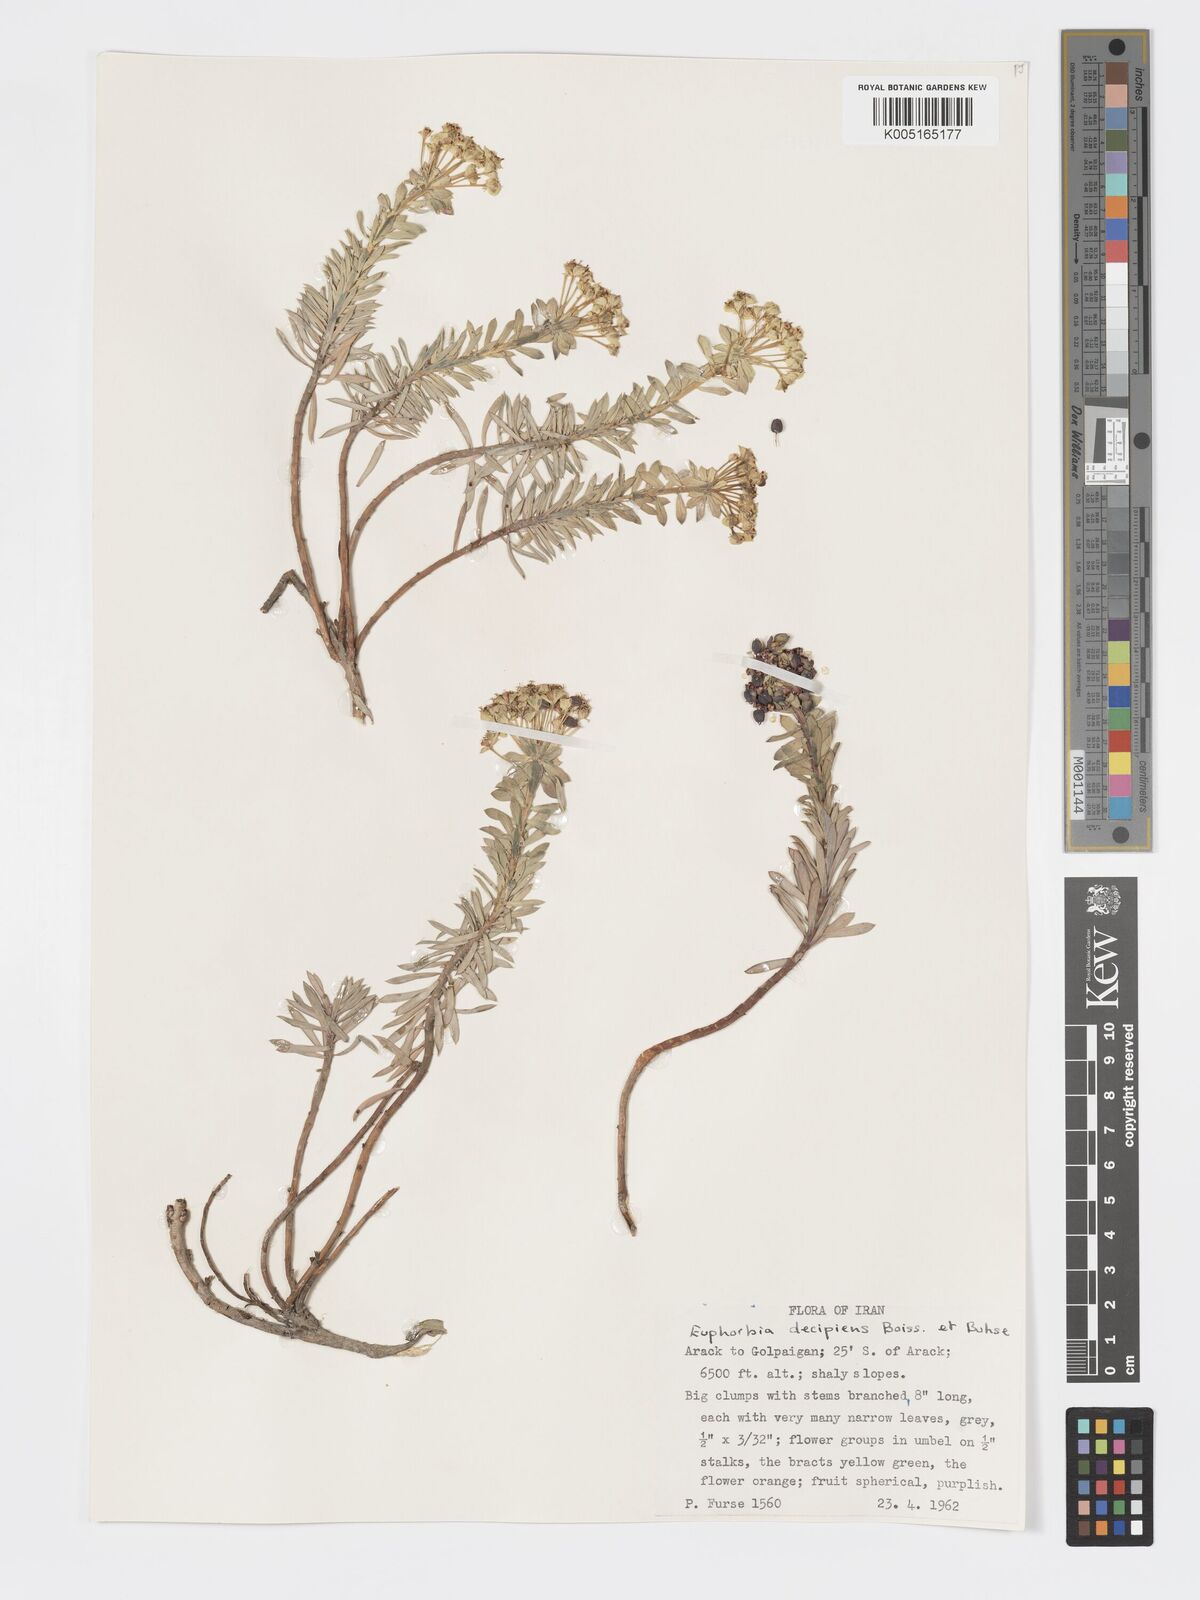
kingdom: Plantae
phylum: Tracheophyta
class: Magnoliopsida
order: Malpighiales
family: Euphorbiaceae
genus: Euphorbia
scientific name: Euphorbia polycaulis
